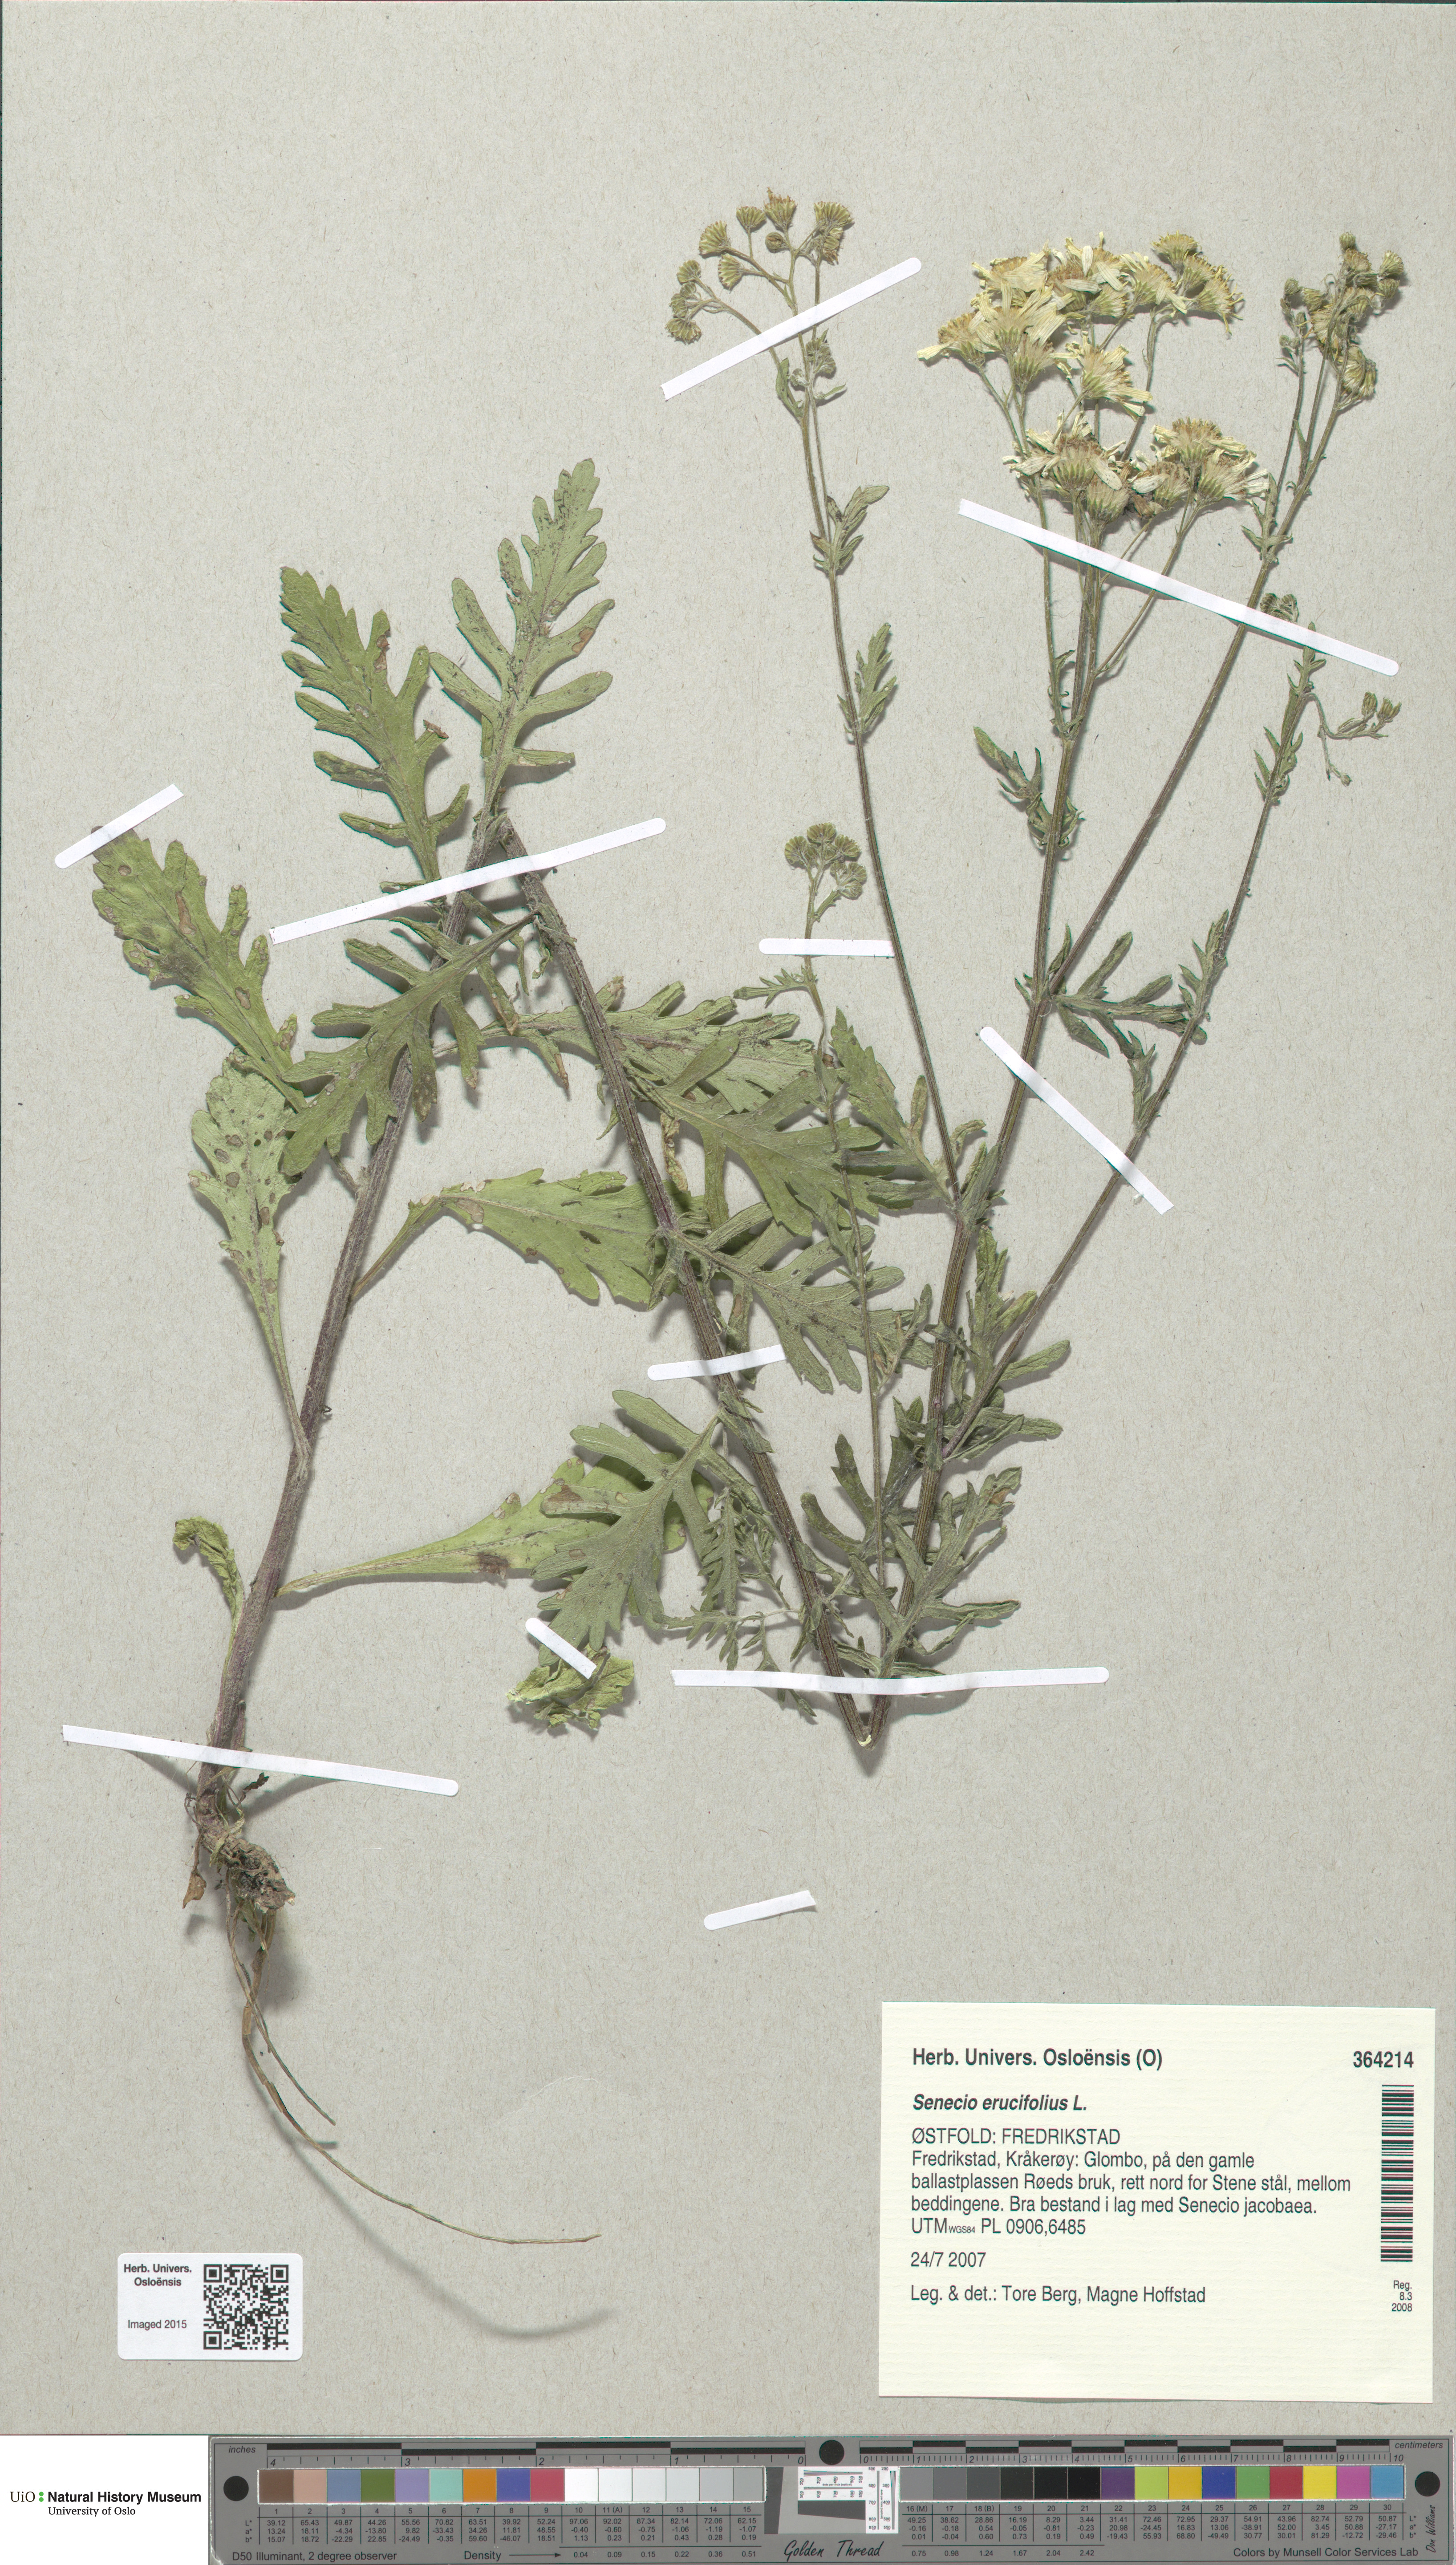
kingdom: Plantae
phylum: Tracheophyta
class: Magnoliopsida
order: Asterales
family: Asteraceae
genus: Jacobaea
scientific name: Jacobaea erucifolia
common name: Hoary ragwort
